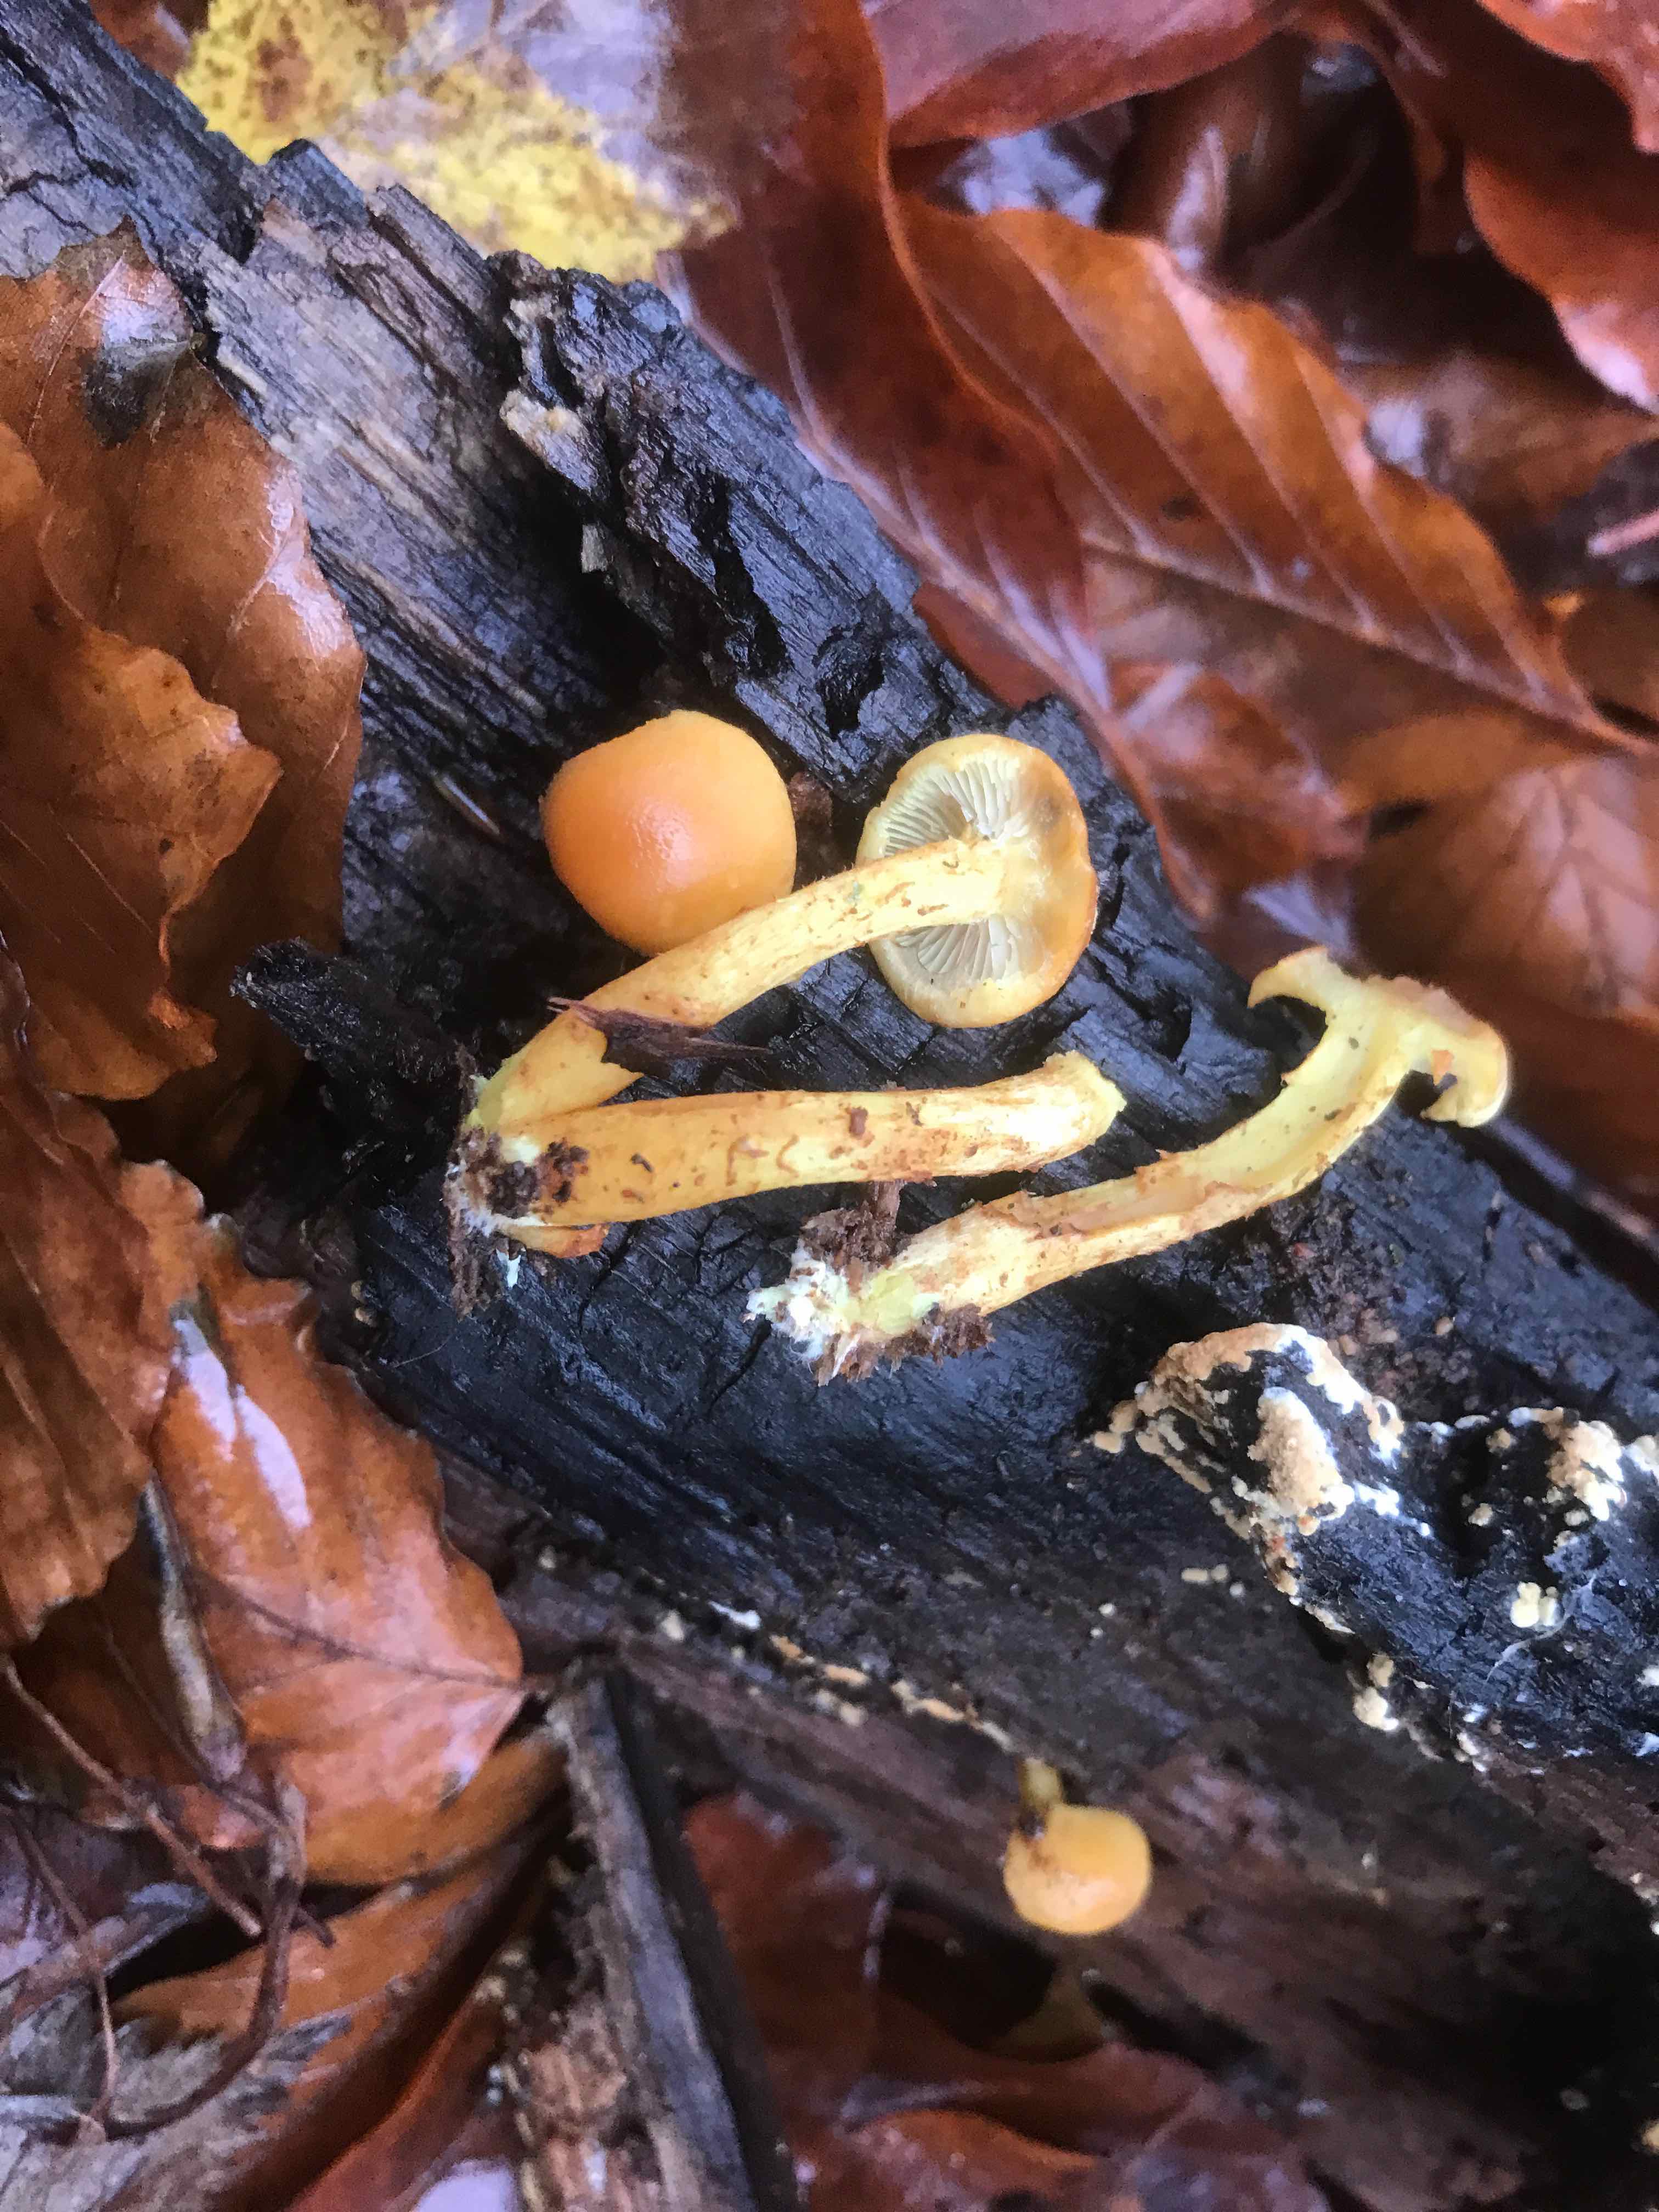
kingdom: Fungi
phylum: Basidiomycota
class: Agaricomycetes
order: Agaricales
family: Strophariaceae
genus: Hypholoma
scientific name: Hypholoma fasciculare
